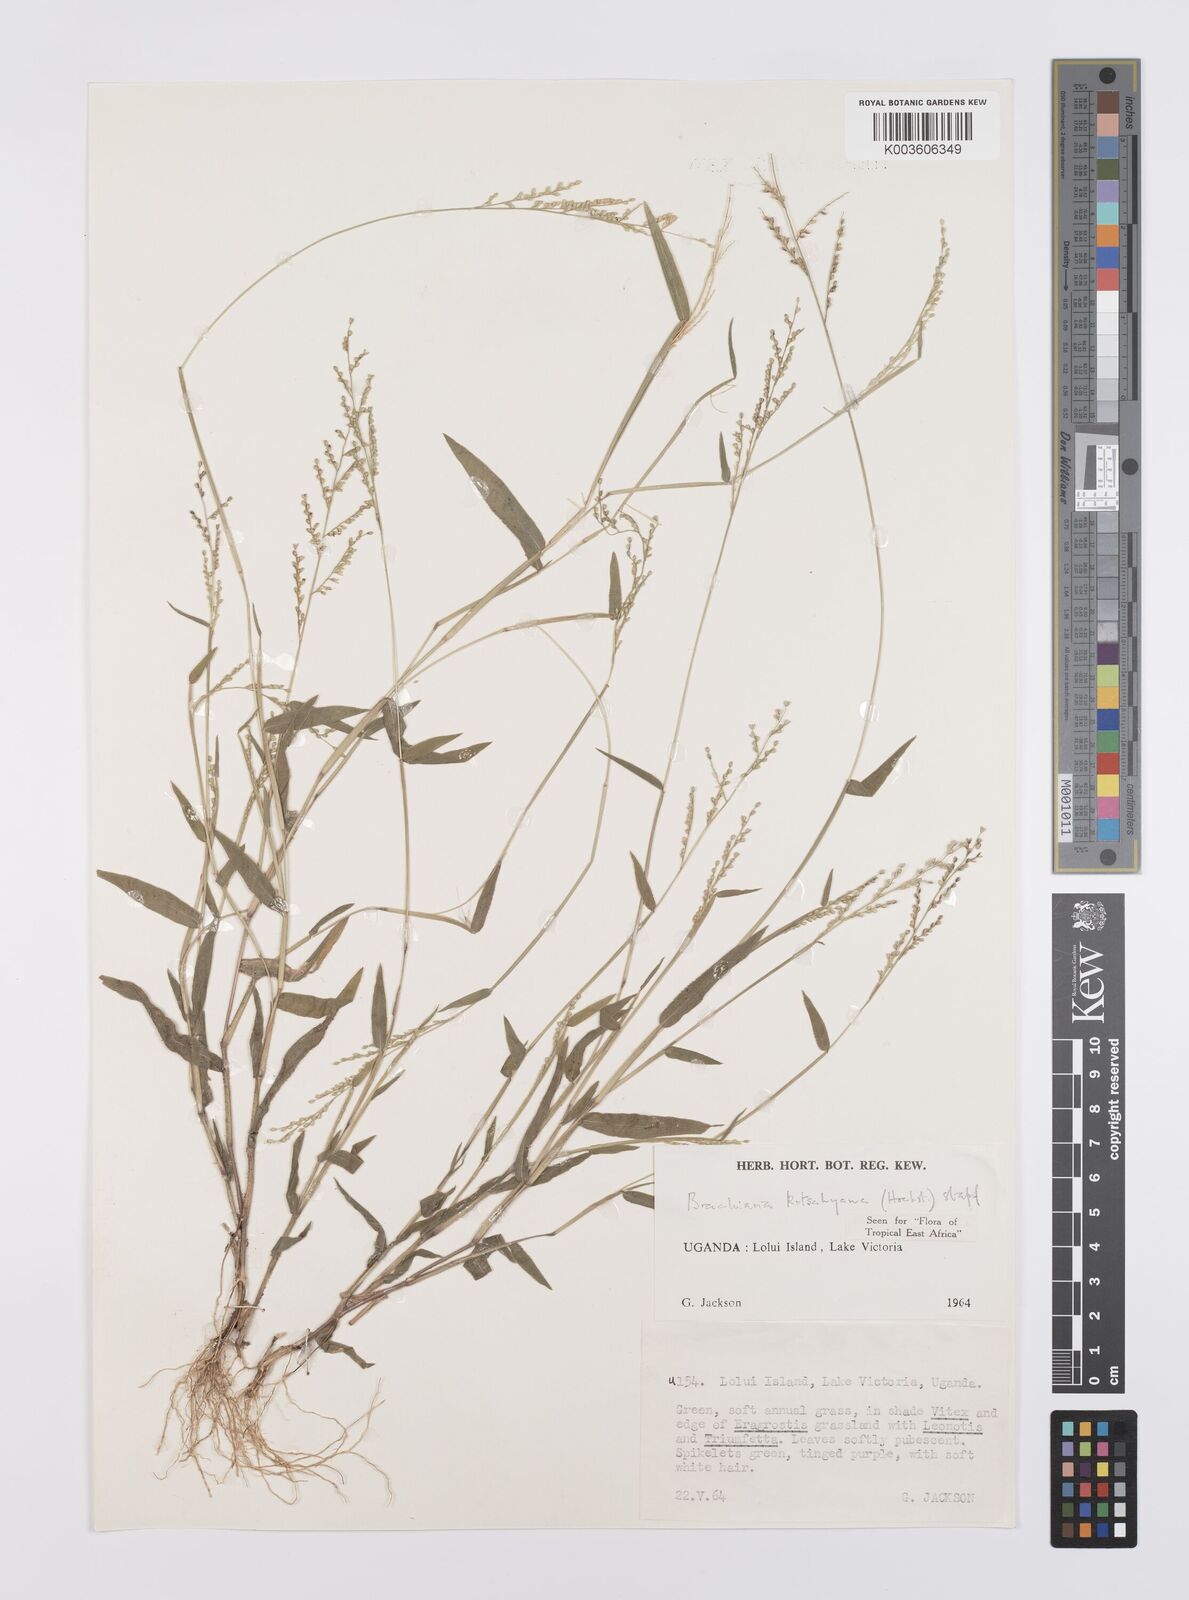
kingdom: Plantae
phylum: Tracheophyta
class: Liliopsida
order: Poales
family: Poaceae
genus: Urochloa
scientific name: Urochloa comata
